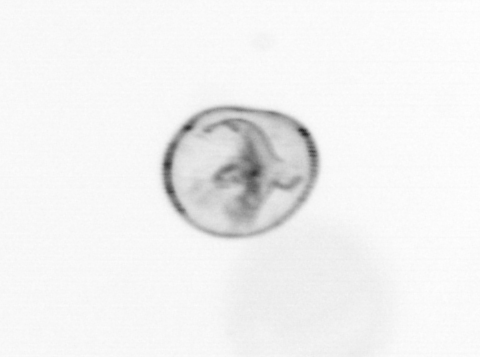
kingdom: Chromista
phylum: Myzozoa
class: Dinophyceae
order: Noctilucales
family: Noctilucaceae
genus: Noctiluca
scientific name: Noctiluca scintillans
